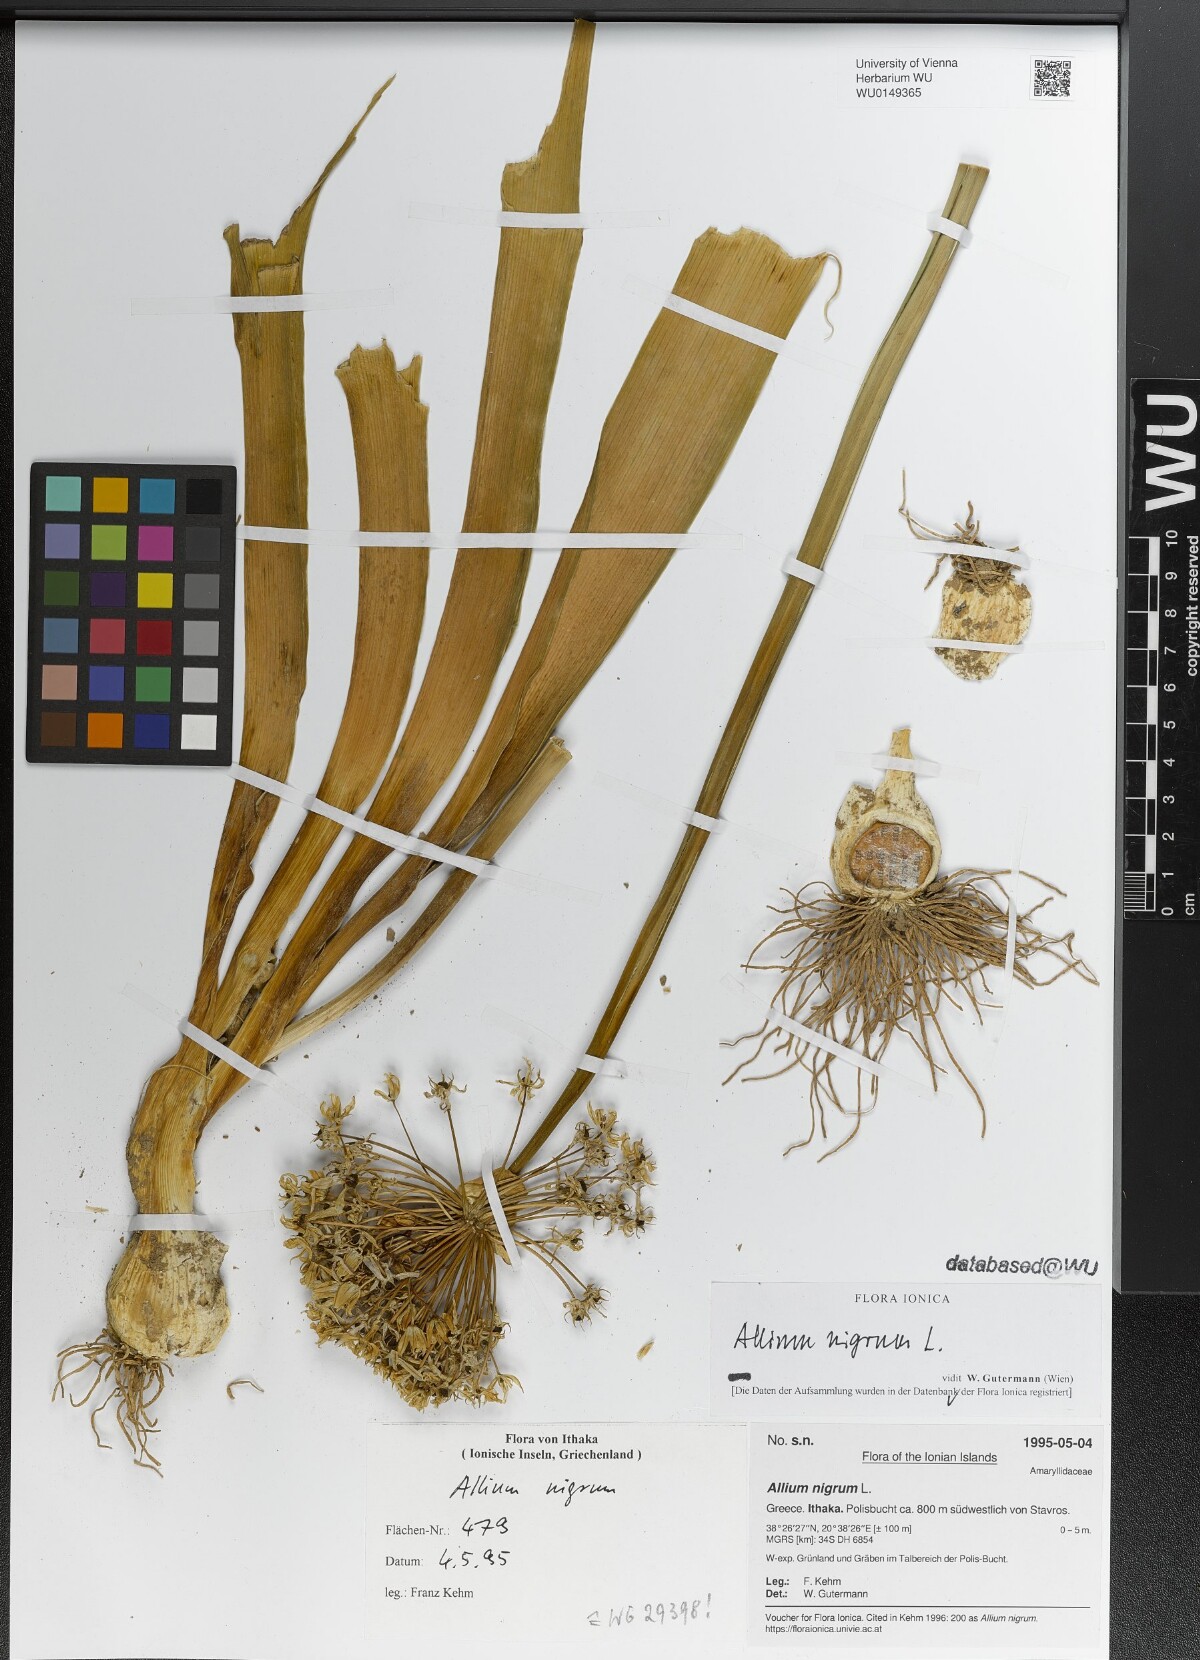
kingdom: Plantae
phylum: Tracheophyta
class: Liliopsida
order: Asparagales
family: Amaryllidaceae
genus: Allium
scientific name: Allium nigrum
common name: Black garlic
